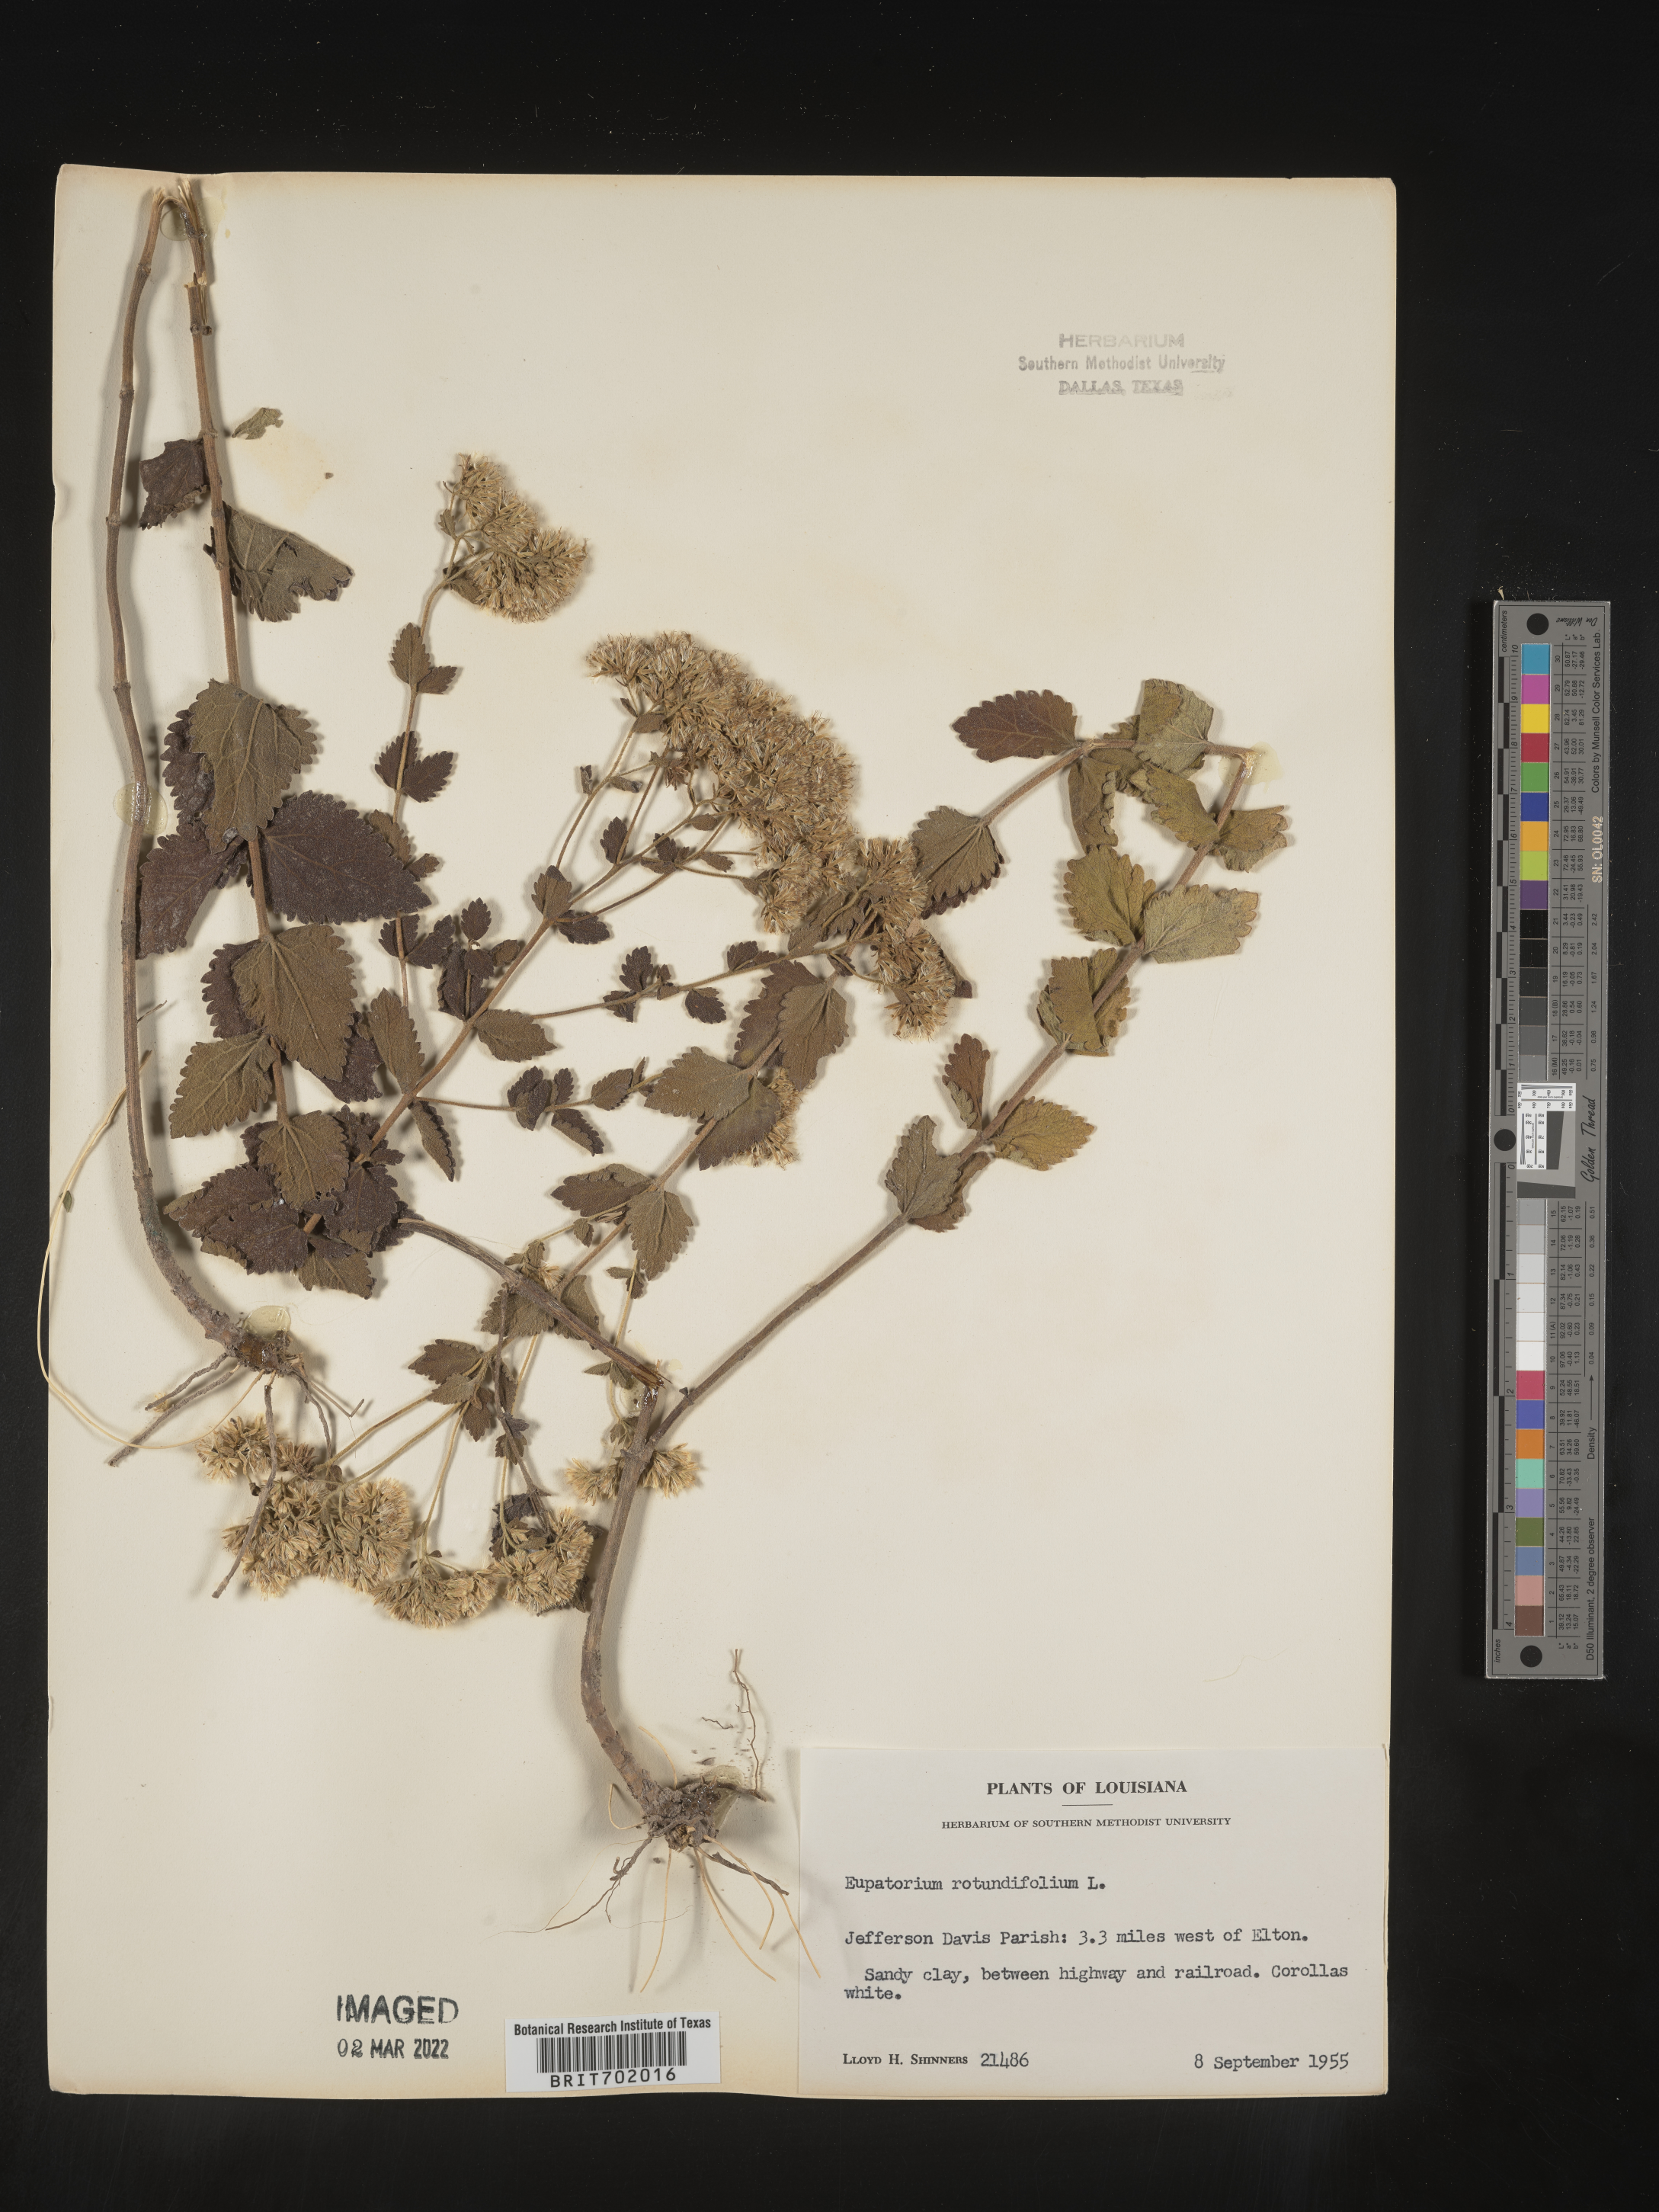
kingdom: Plantae
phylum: Tracheophyta
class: Magnoliopsida
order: Asterales
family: Asteraceae
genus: Eupatorium
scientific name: Eupatorium rotundifolium
